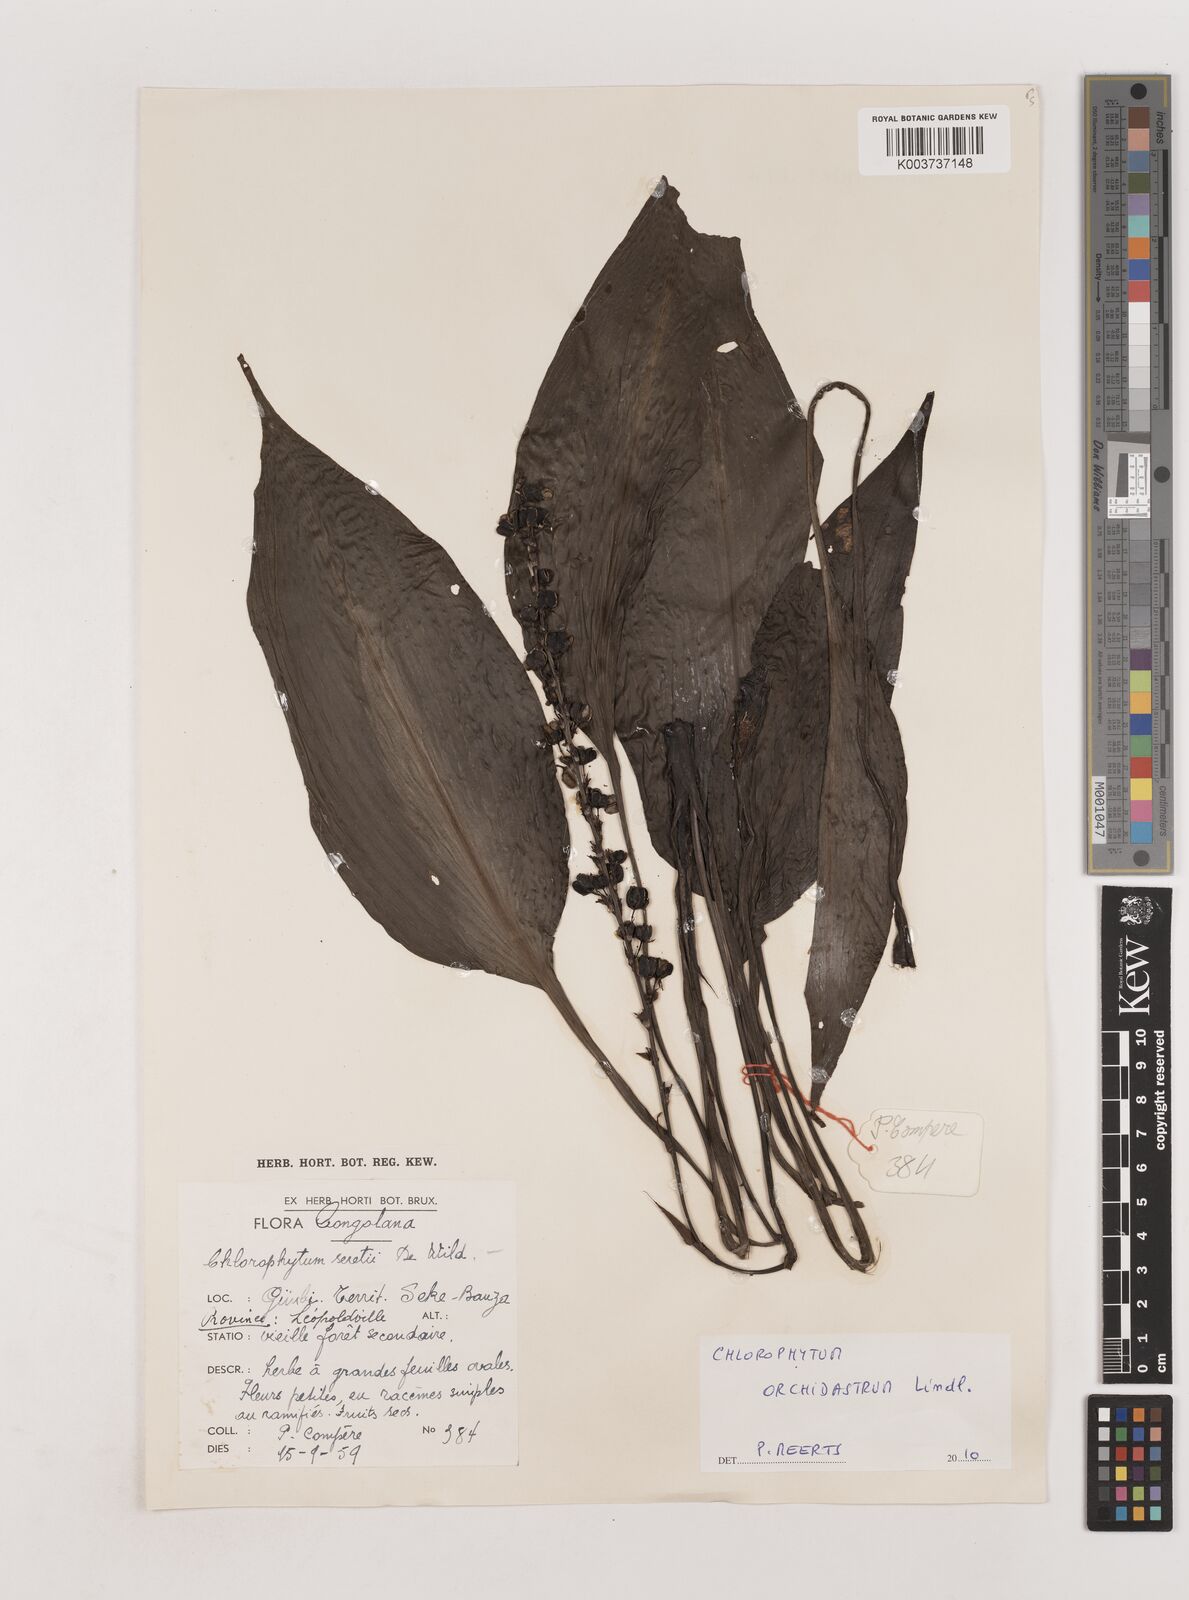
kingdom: Plantae
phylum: Tracheophyta
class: Liliopsida
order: Asparagales
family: Asparagaceae
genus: Chlorophytum
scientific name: Chlorophytum orchidastrum
